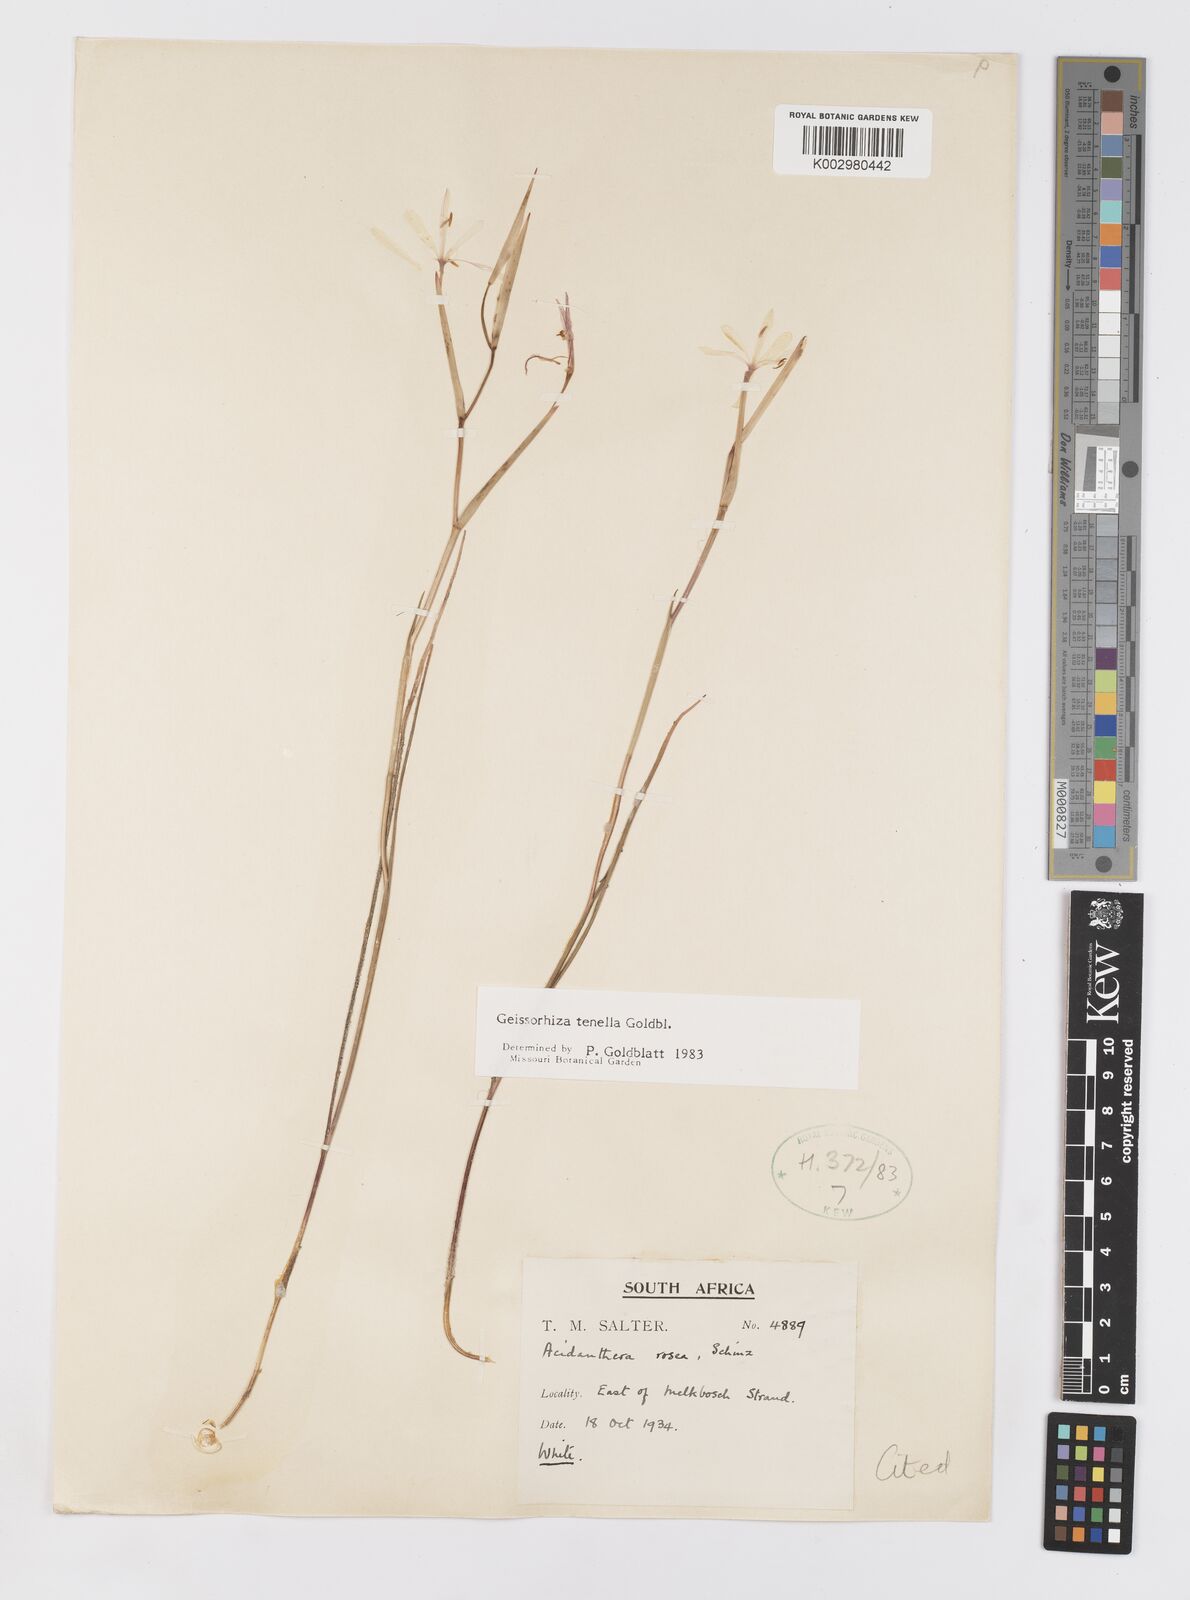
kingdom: Plantae
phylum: Tracheophyta
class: Liliopsida
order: Asparagales
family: Iridaceae
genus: Geissorhiza
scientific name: Geissorhiza tenella
